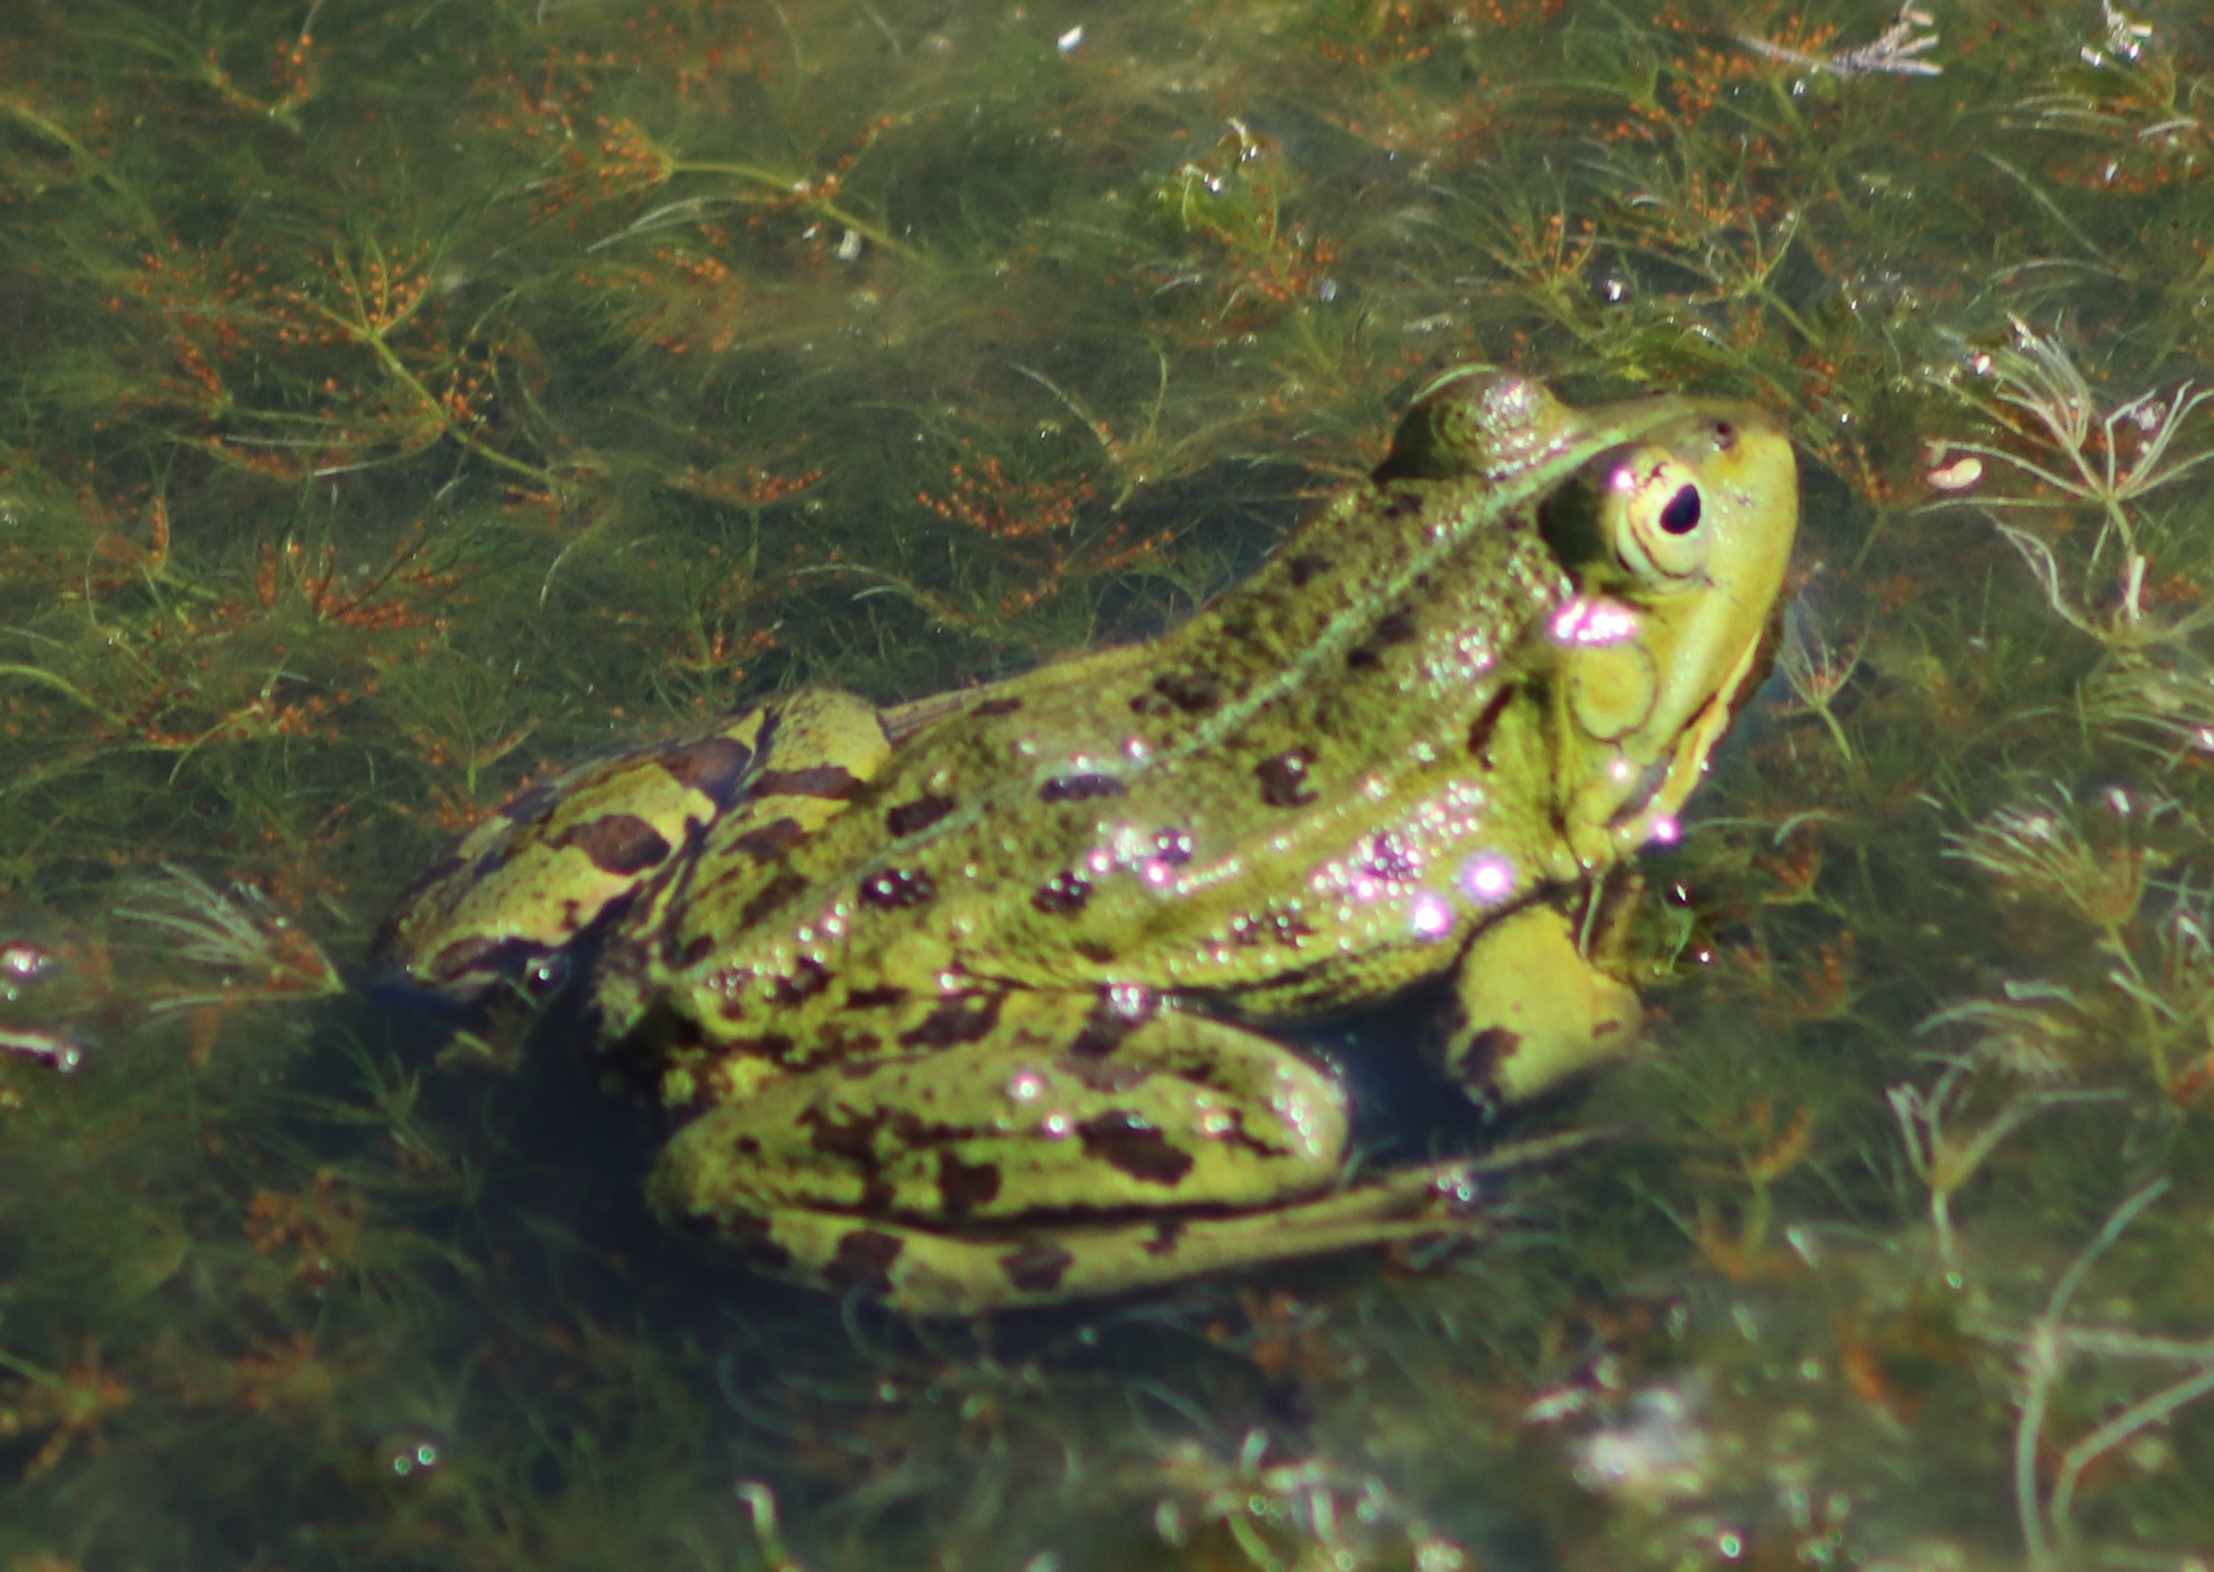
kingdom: Animalia
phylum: Chordata
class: Amphibia
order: Anura
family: Ranidae
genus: Pelophylax
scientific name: Pelophylax lessonae
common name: Grøn frø
